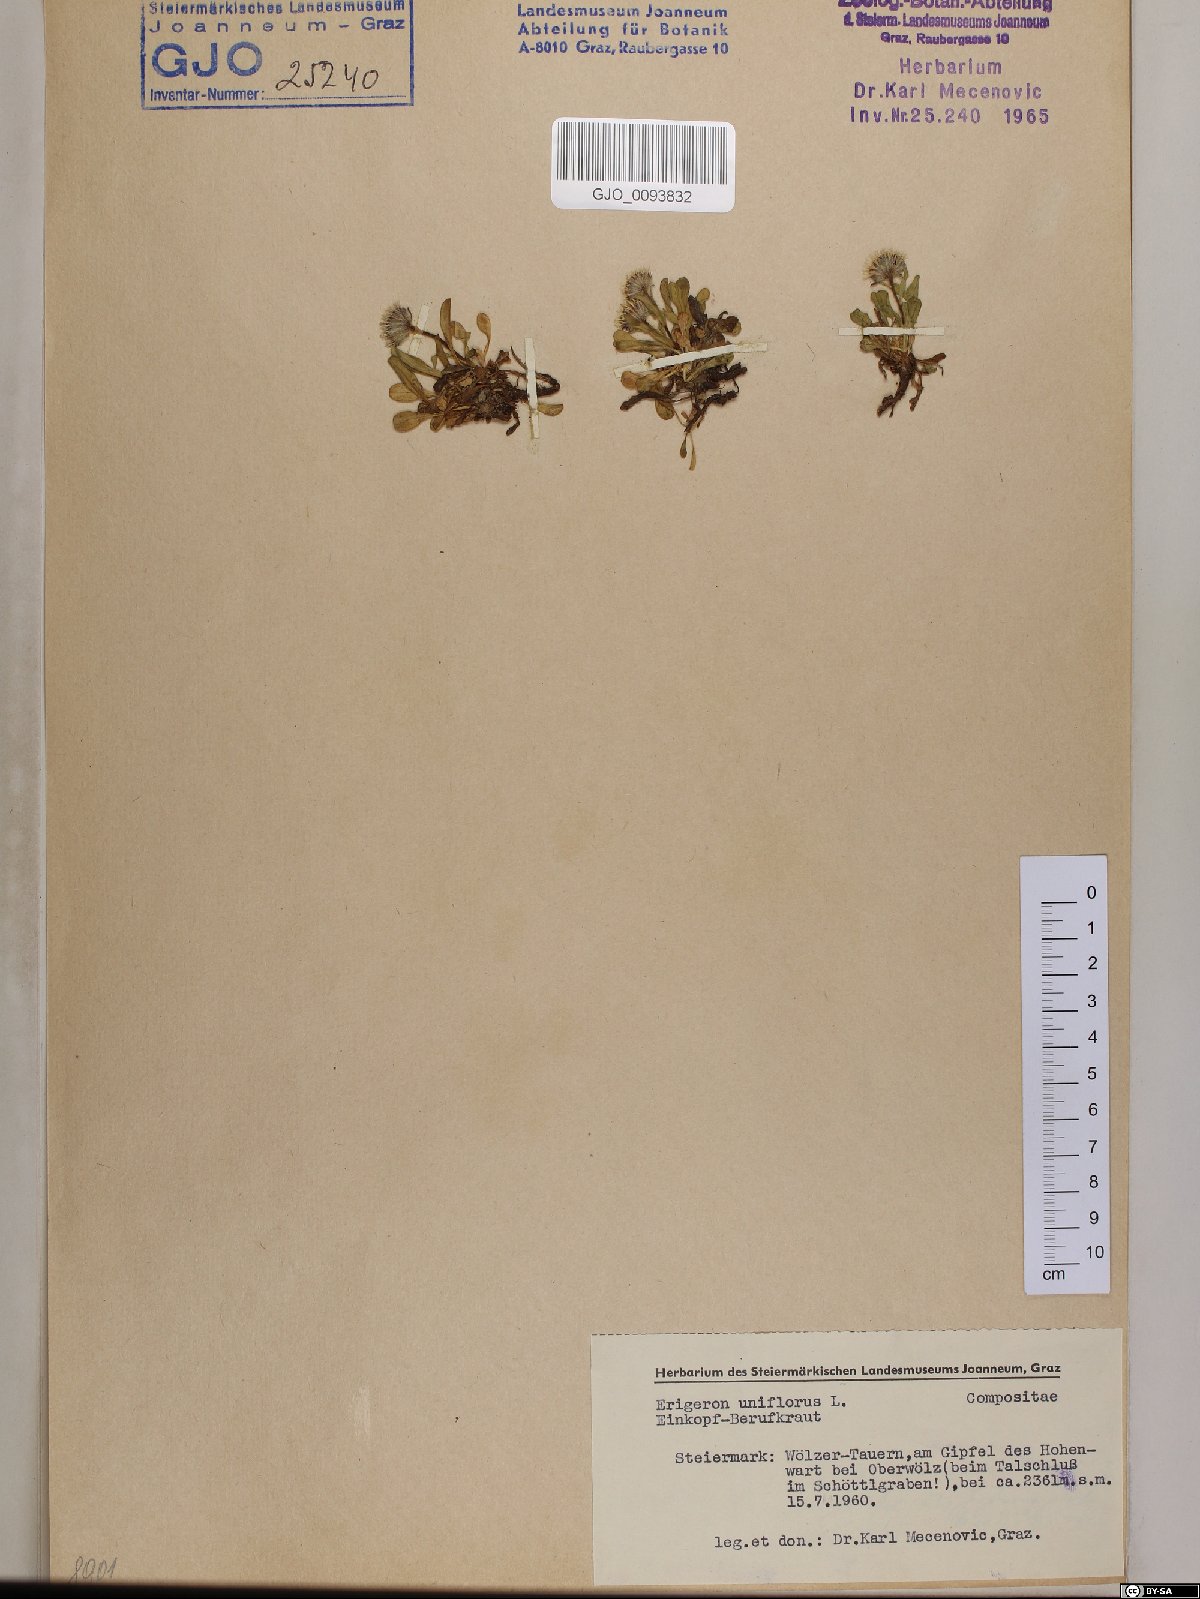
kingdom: Plantae
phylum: Tracheophyta
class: Magnoliopsida
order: Asterales
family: Asteraceae
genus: Erigeron
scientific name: Erigeron uniflorus
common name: Northern daisy
